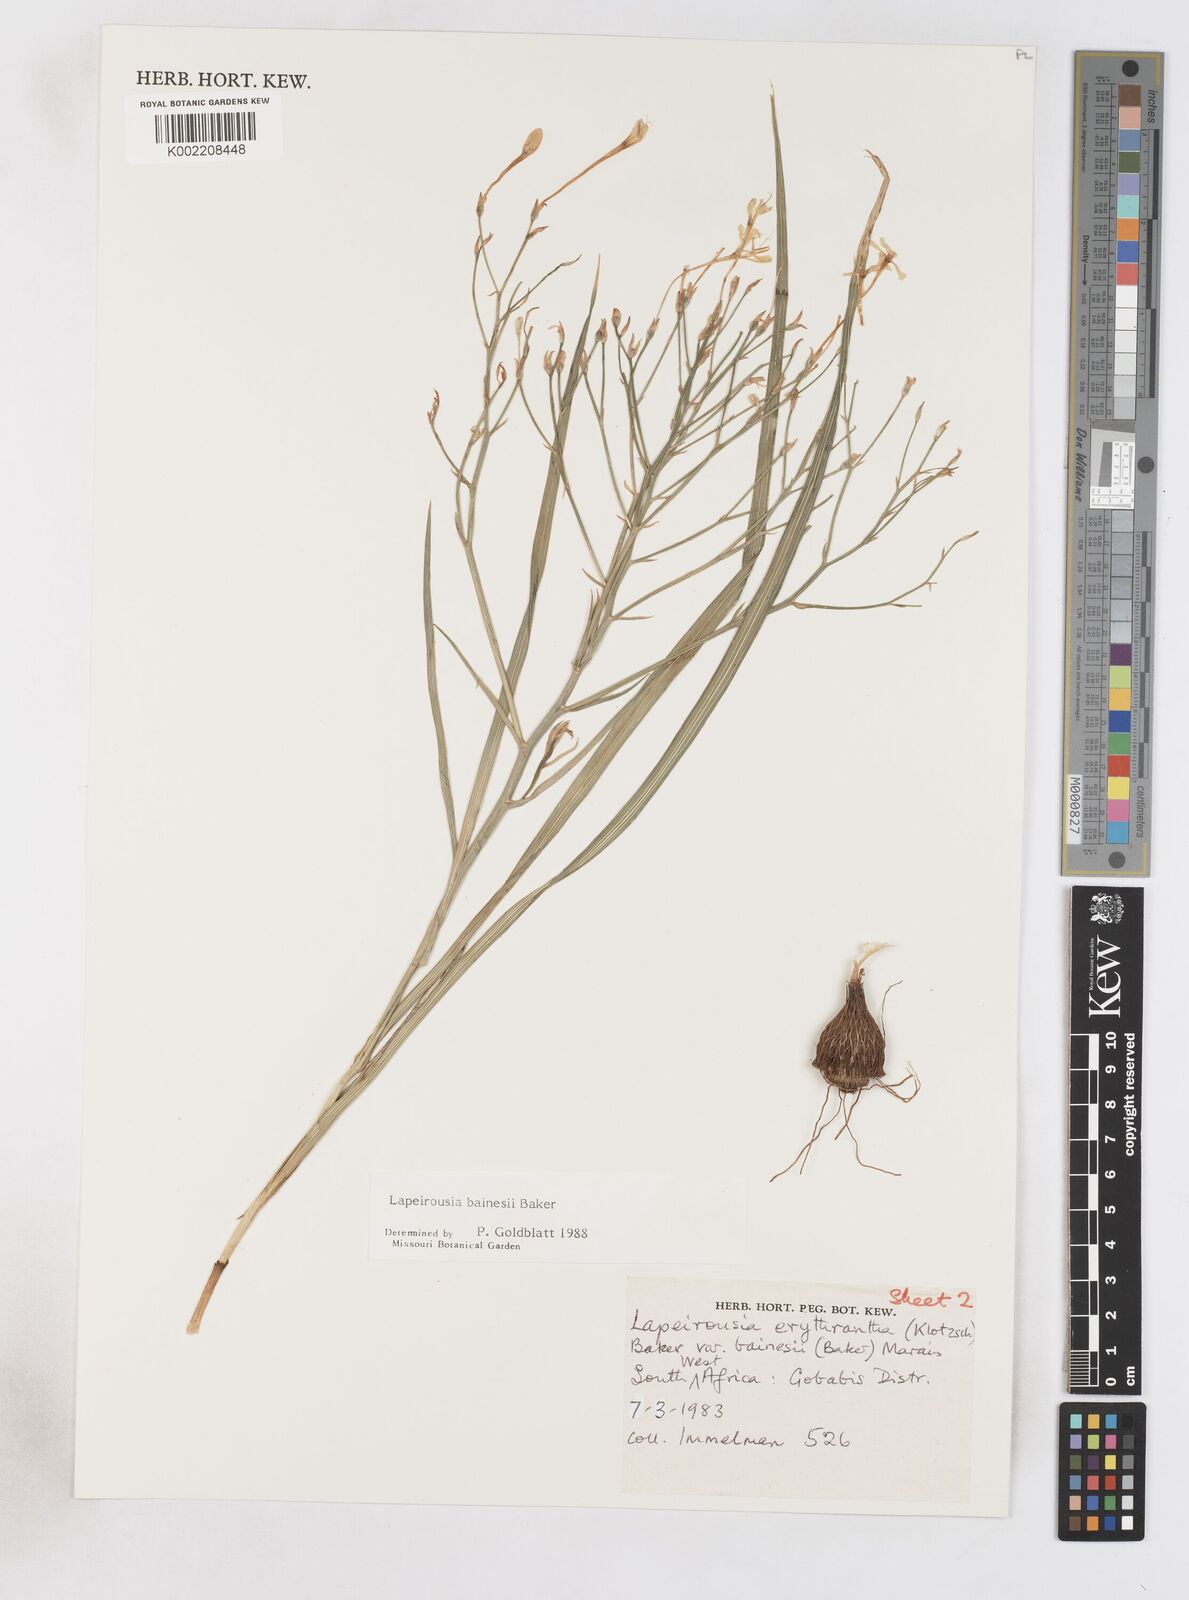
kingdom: Plantae
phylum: Tracheophyta
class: Liliopsida
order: Asparagales
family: Iridaceae
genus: Afrosolen
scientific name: Afrosolen erythranthus
